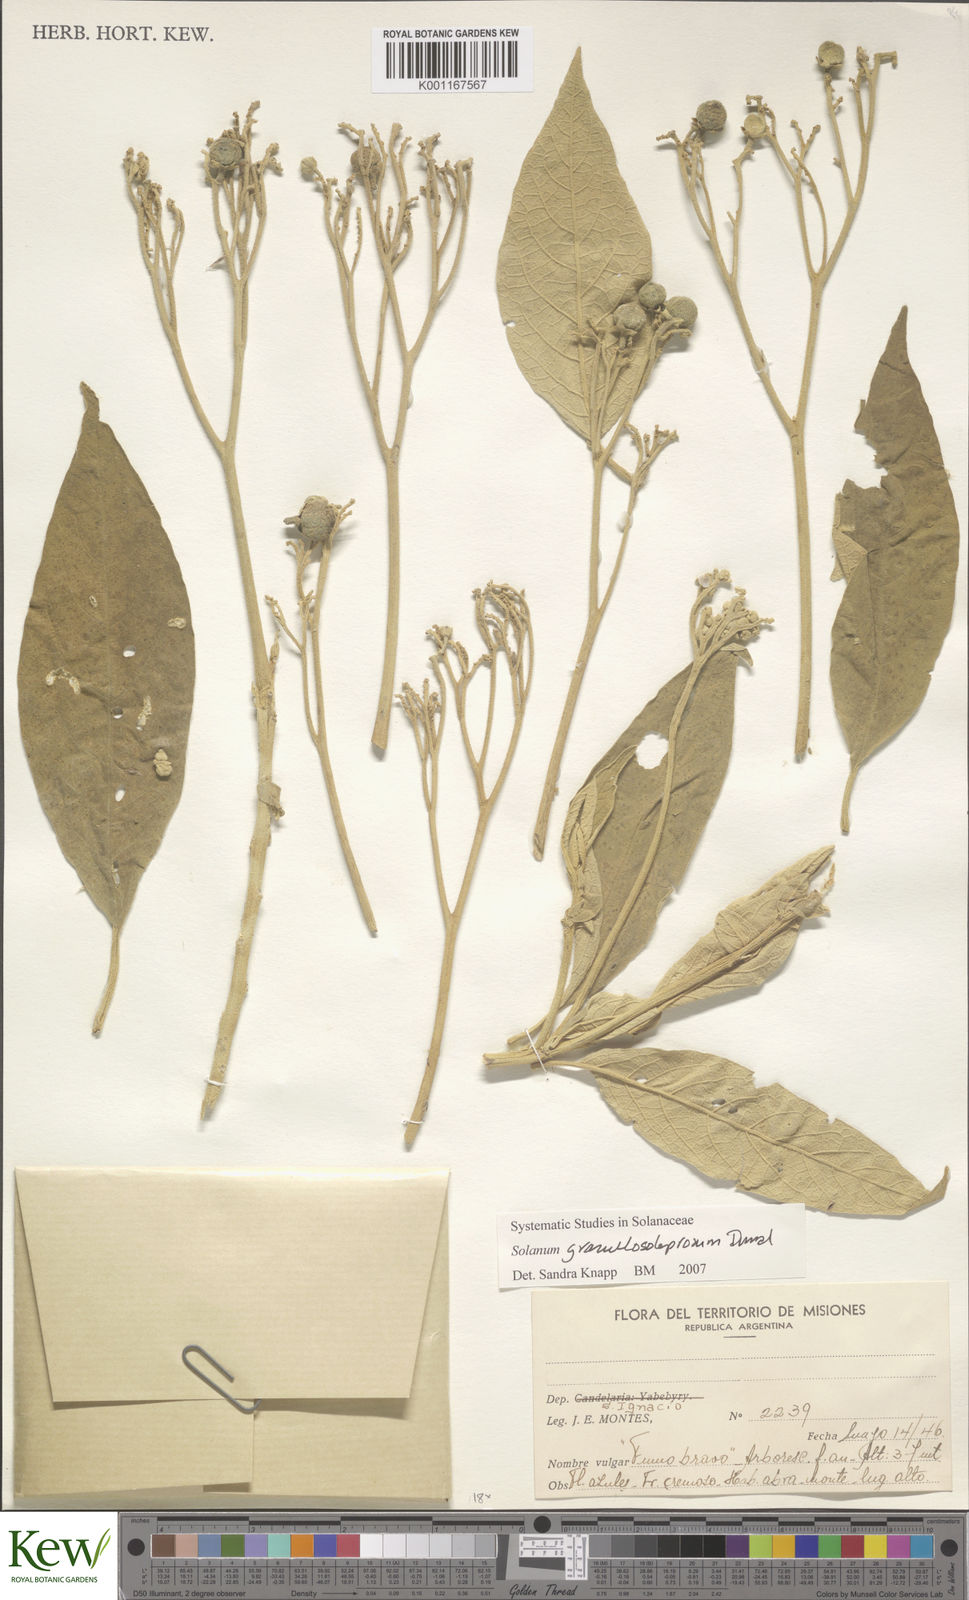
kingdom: Plantae
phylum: Tracheophyta
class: Magnoliopsida
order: Solanales
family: Solanaceae
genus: Solanum
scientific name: Solanum granulosoleprosum
